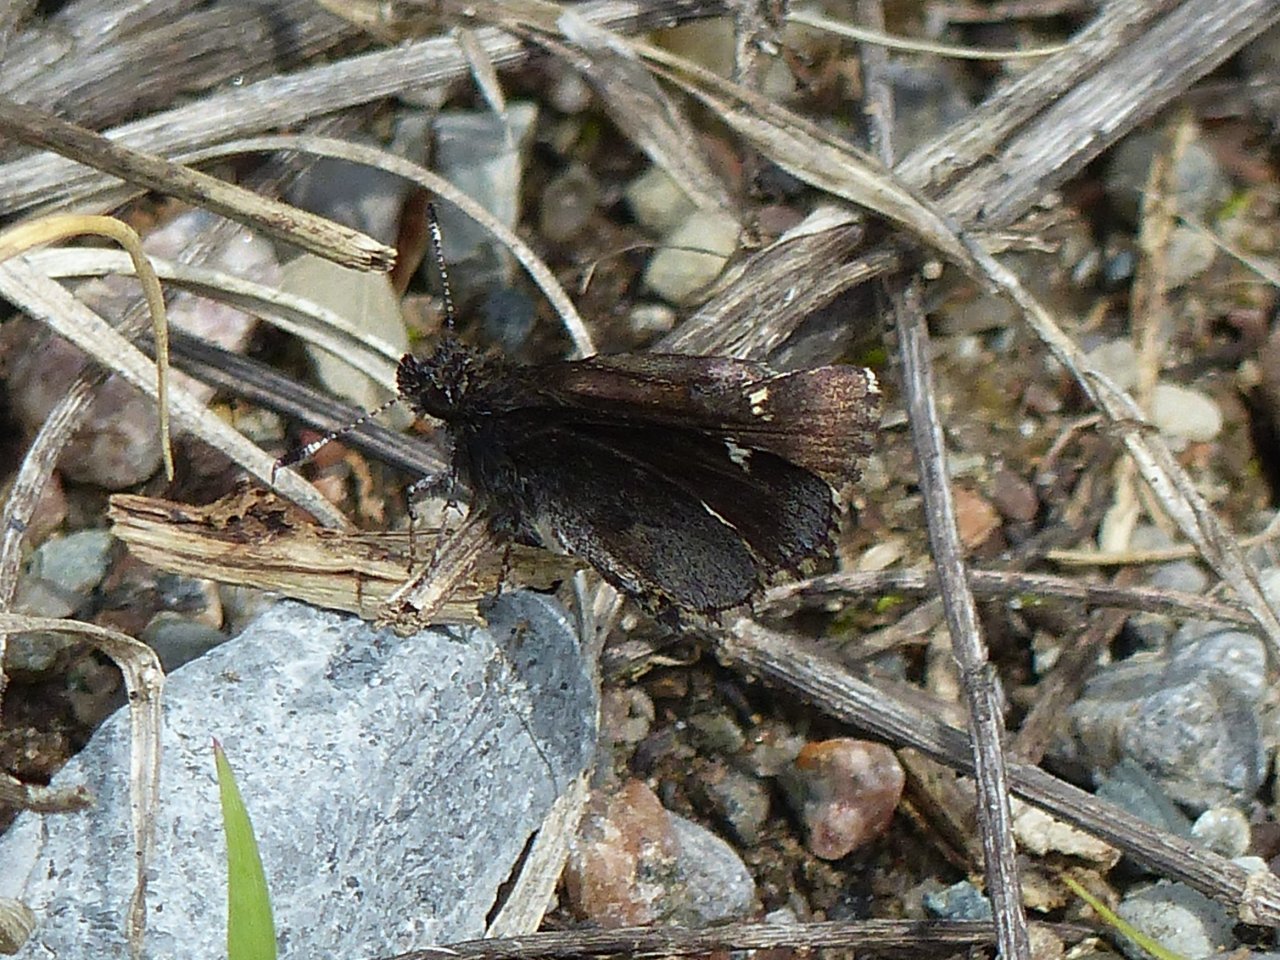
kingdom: Animalia
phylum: Arthropoda
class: Insecta
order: Lepidoptera
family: Hesperiidae
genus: Mastor
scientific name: Mastor vialis
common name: Common Roadside-Skipper
